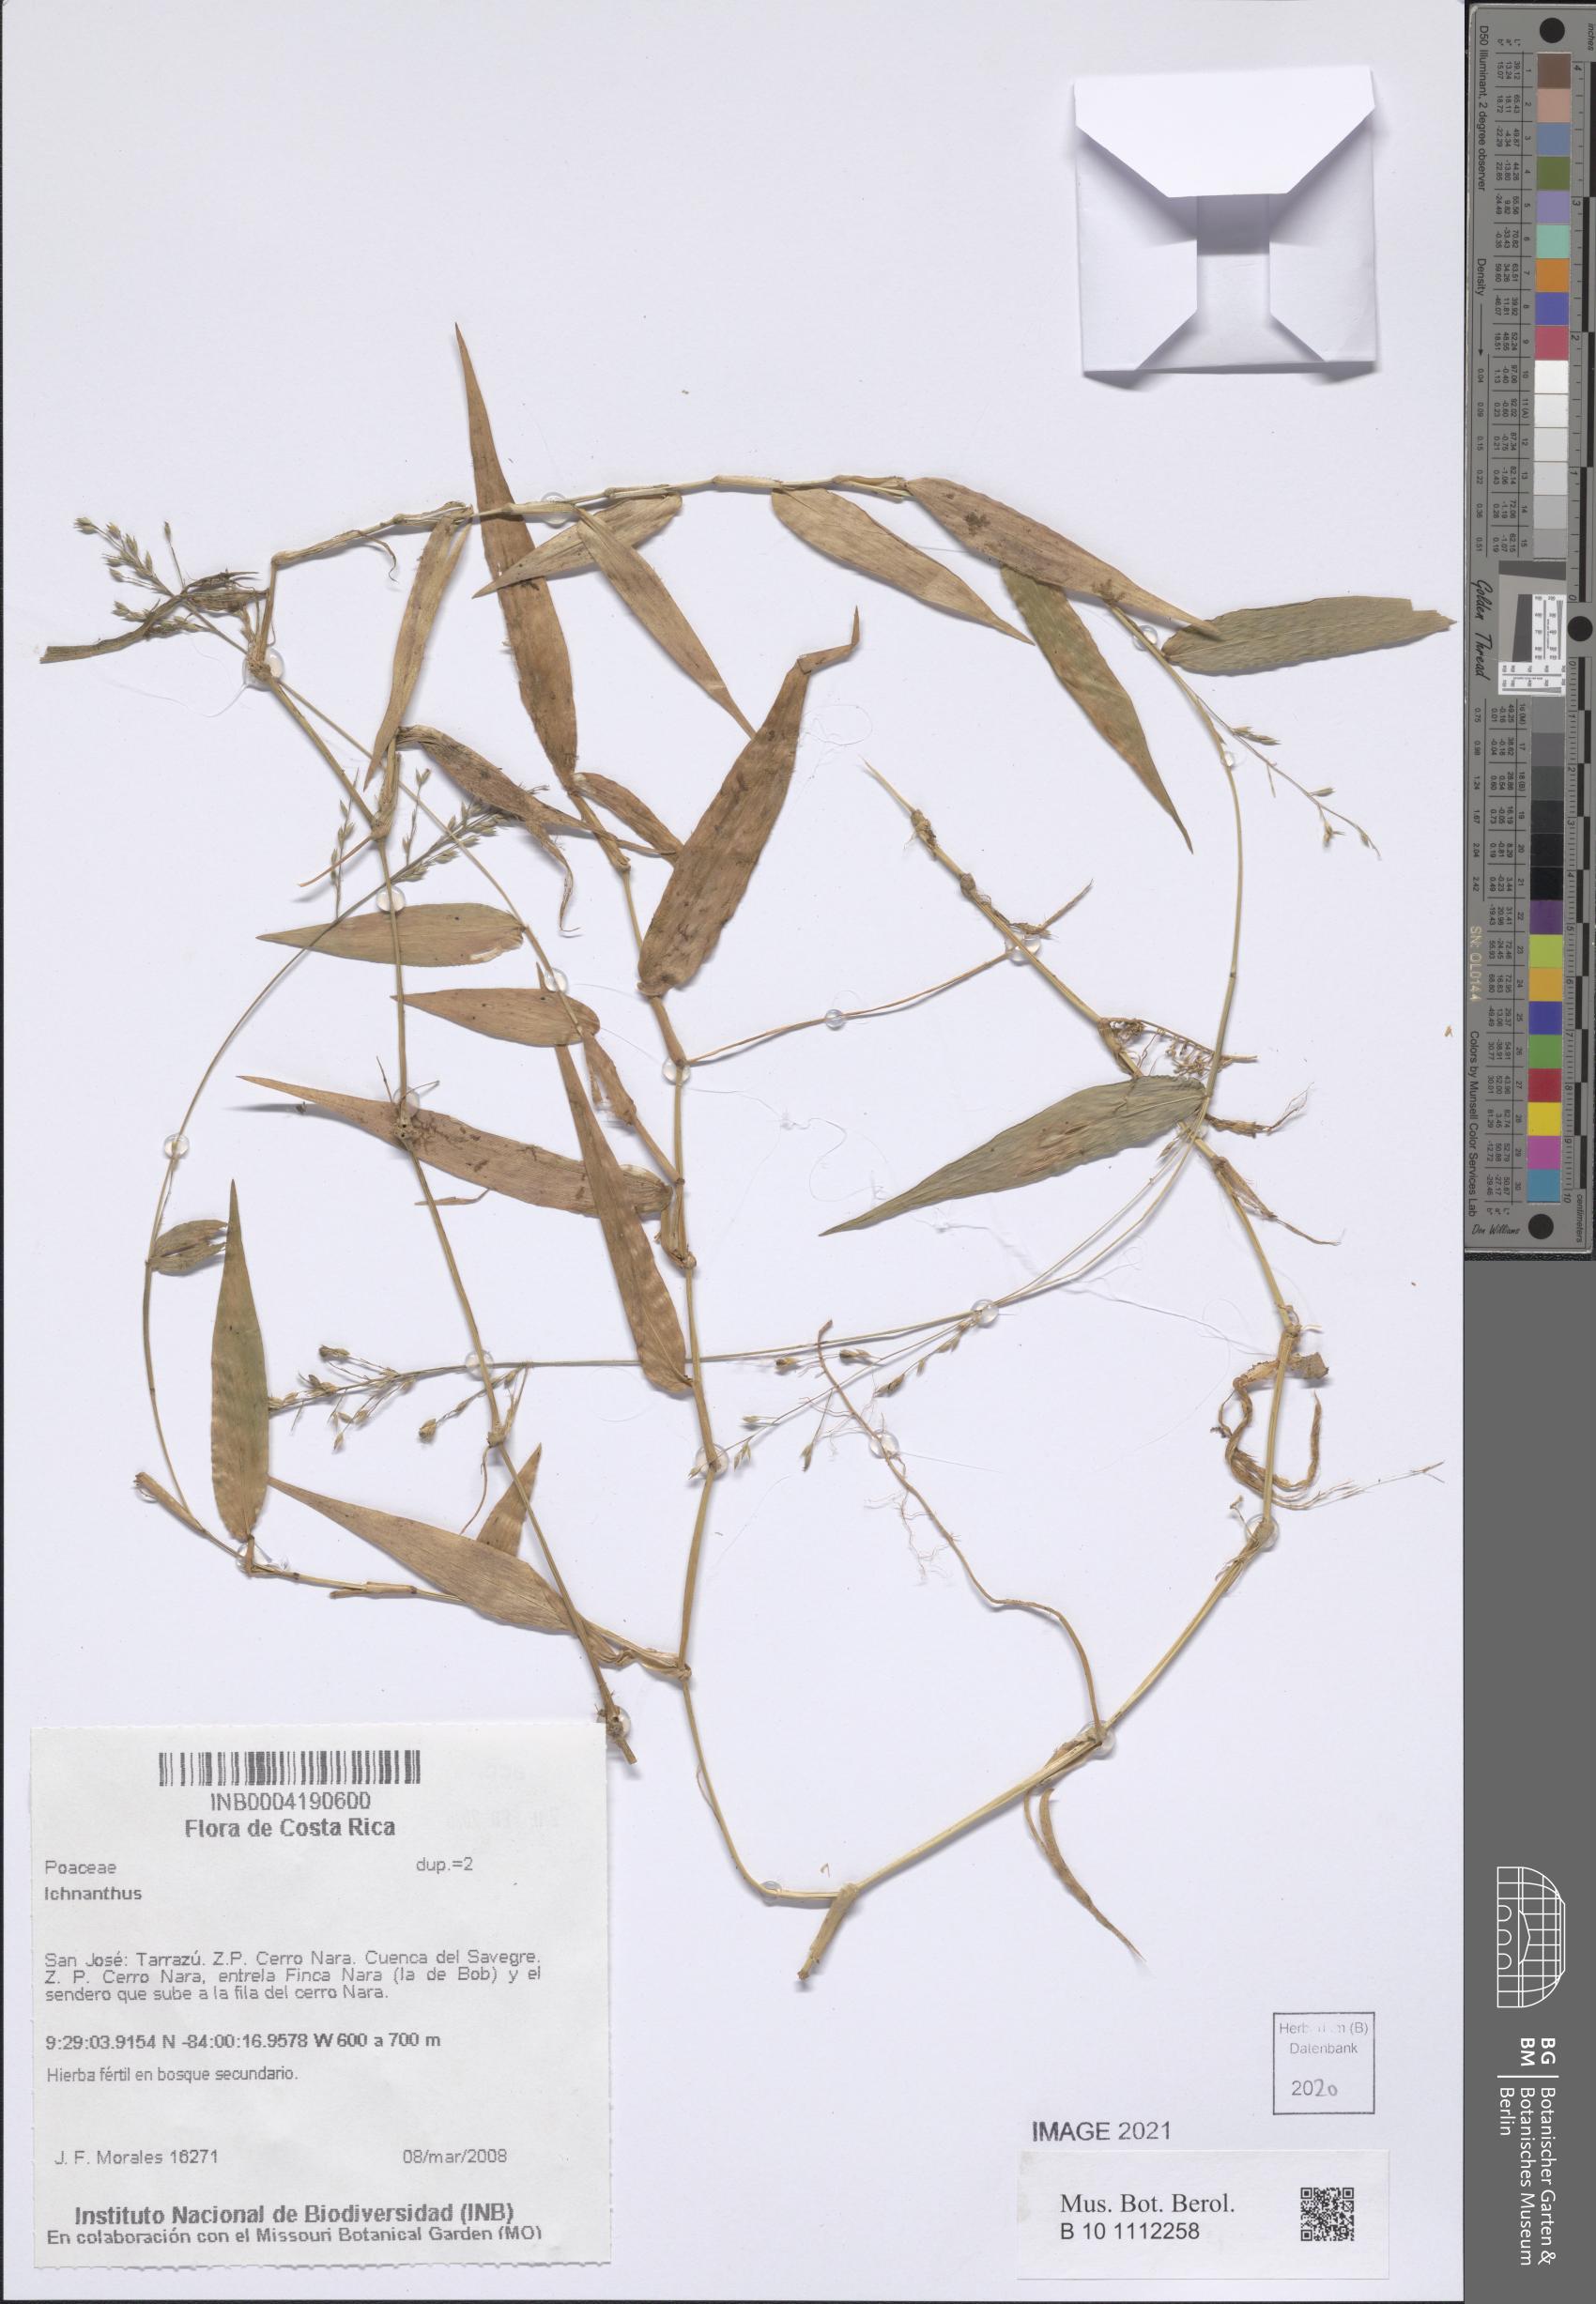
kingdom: Plantae
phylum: Tracheophyta
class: Liliopsida
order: Poales
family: Poaceae
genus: Ichnanthus
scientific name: Ichnanthus
